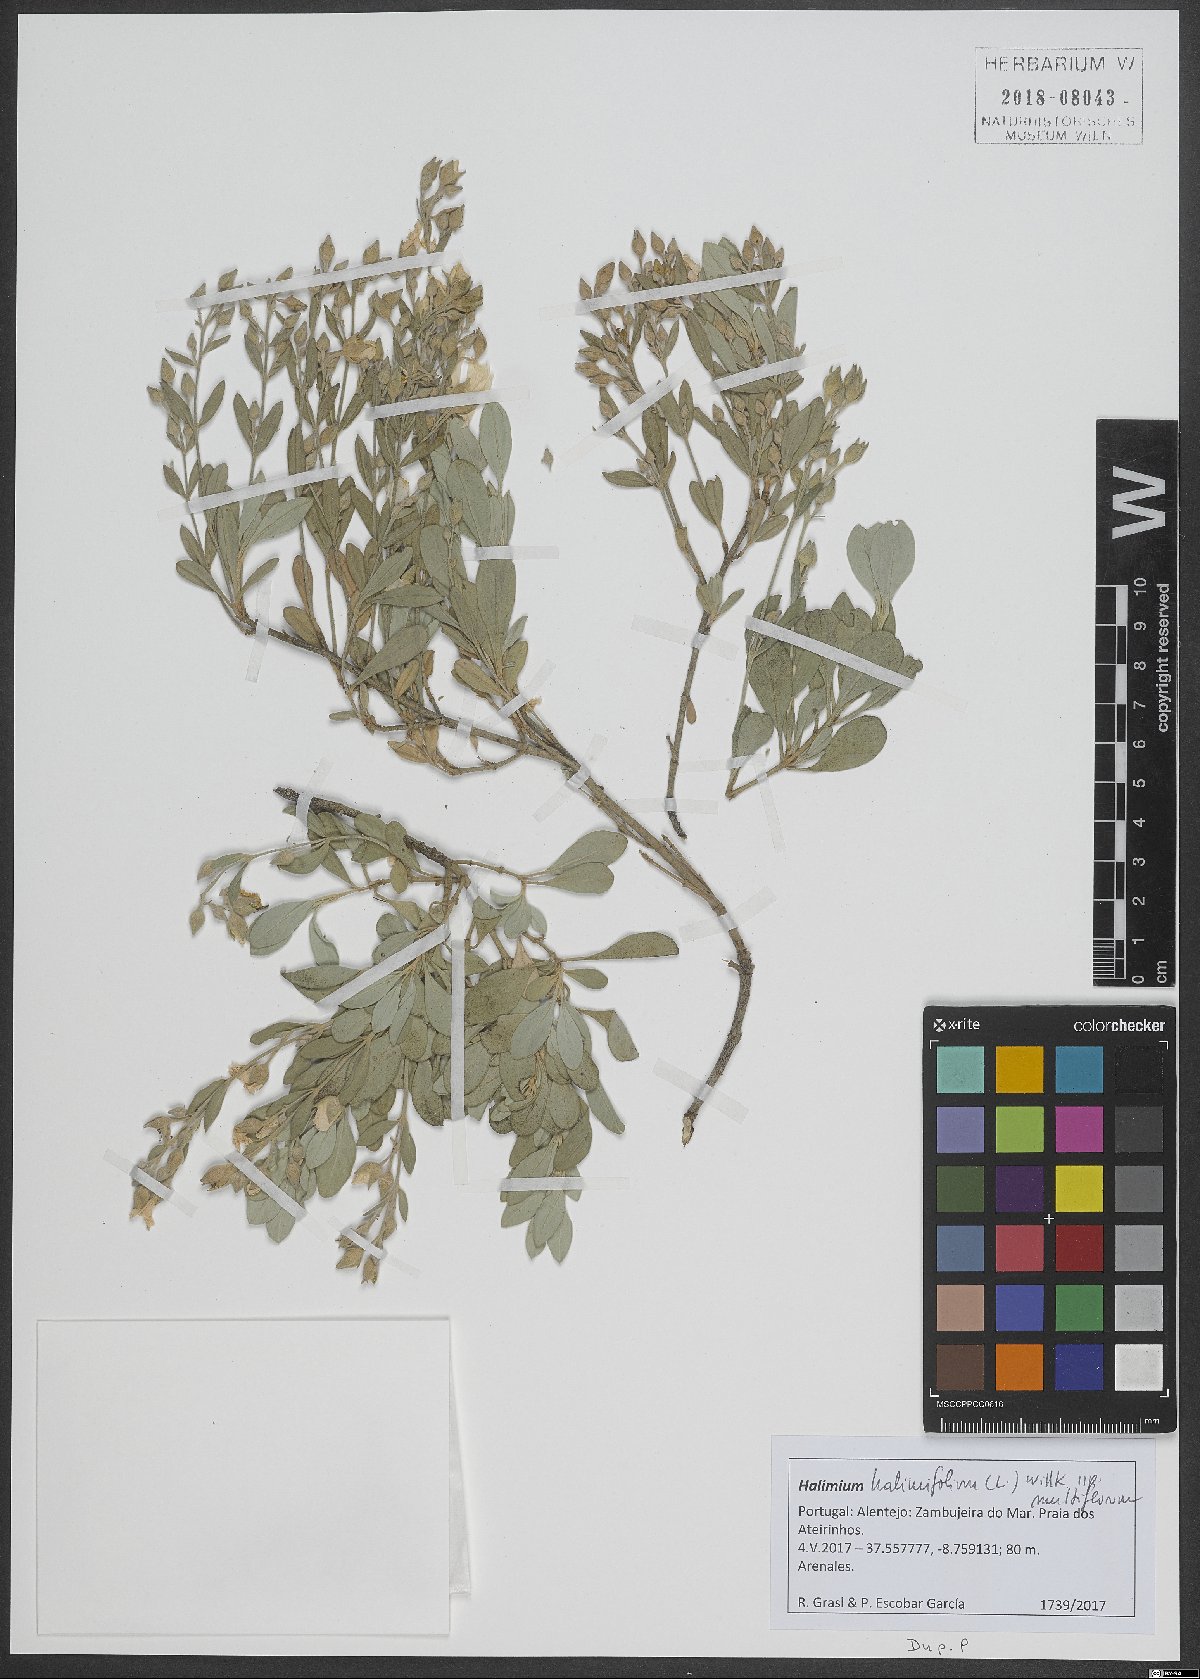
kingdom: Plantae
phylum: Tracheophyta
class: Magnoliopsida
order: Malvales
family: Cistaceae
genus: Halimium
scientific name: Halimium halimifolium
